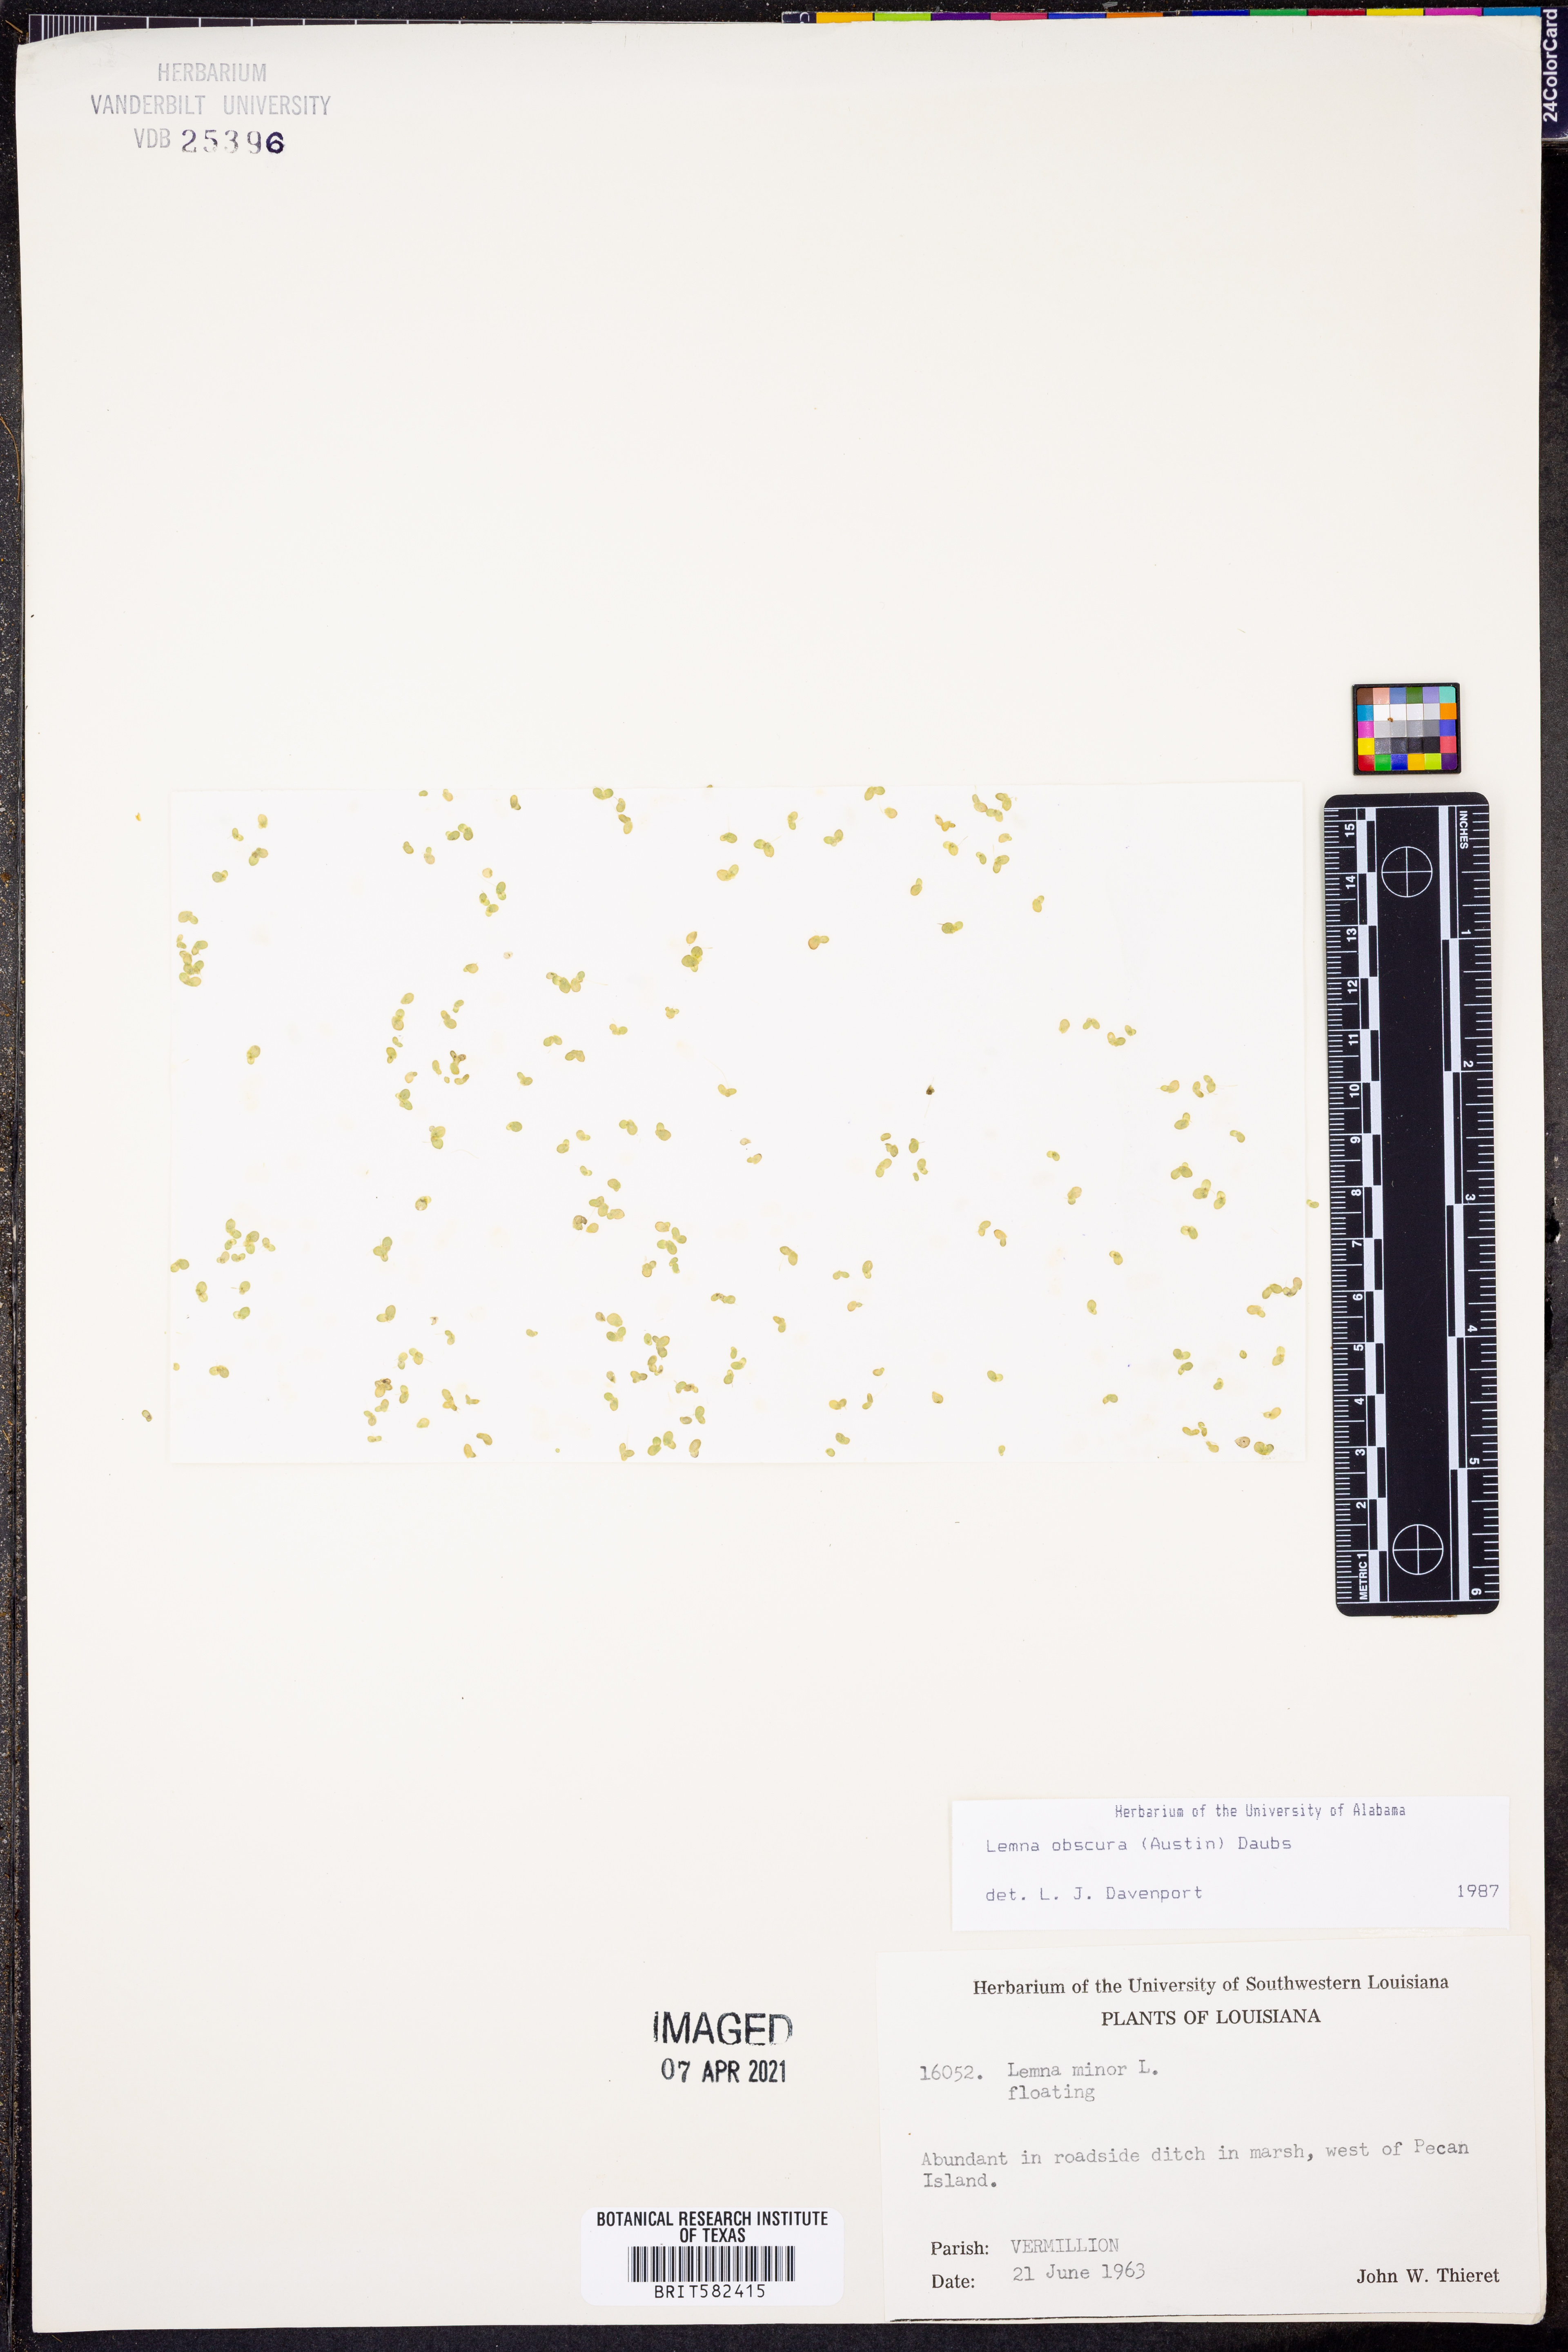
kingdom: Plantae
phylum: Tracheophyta
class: Liliopsida
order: Alismatales
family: Araceae
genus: Lemna
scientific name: Lemna obscura
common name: Little duckweed
